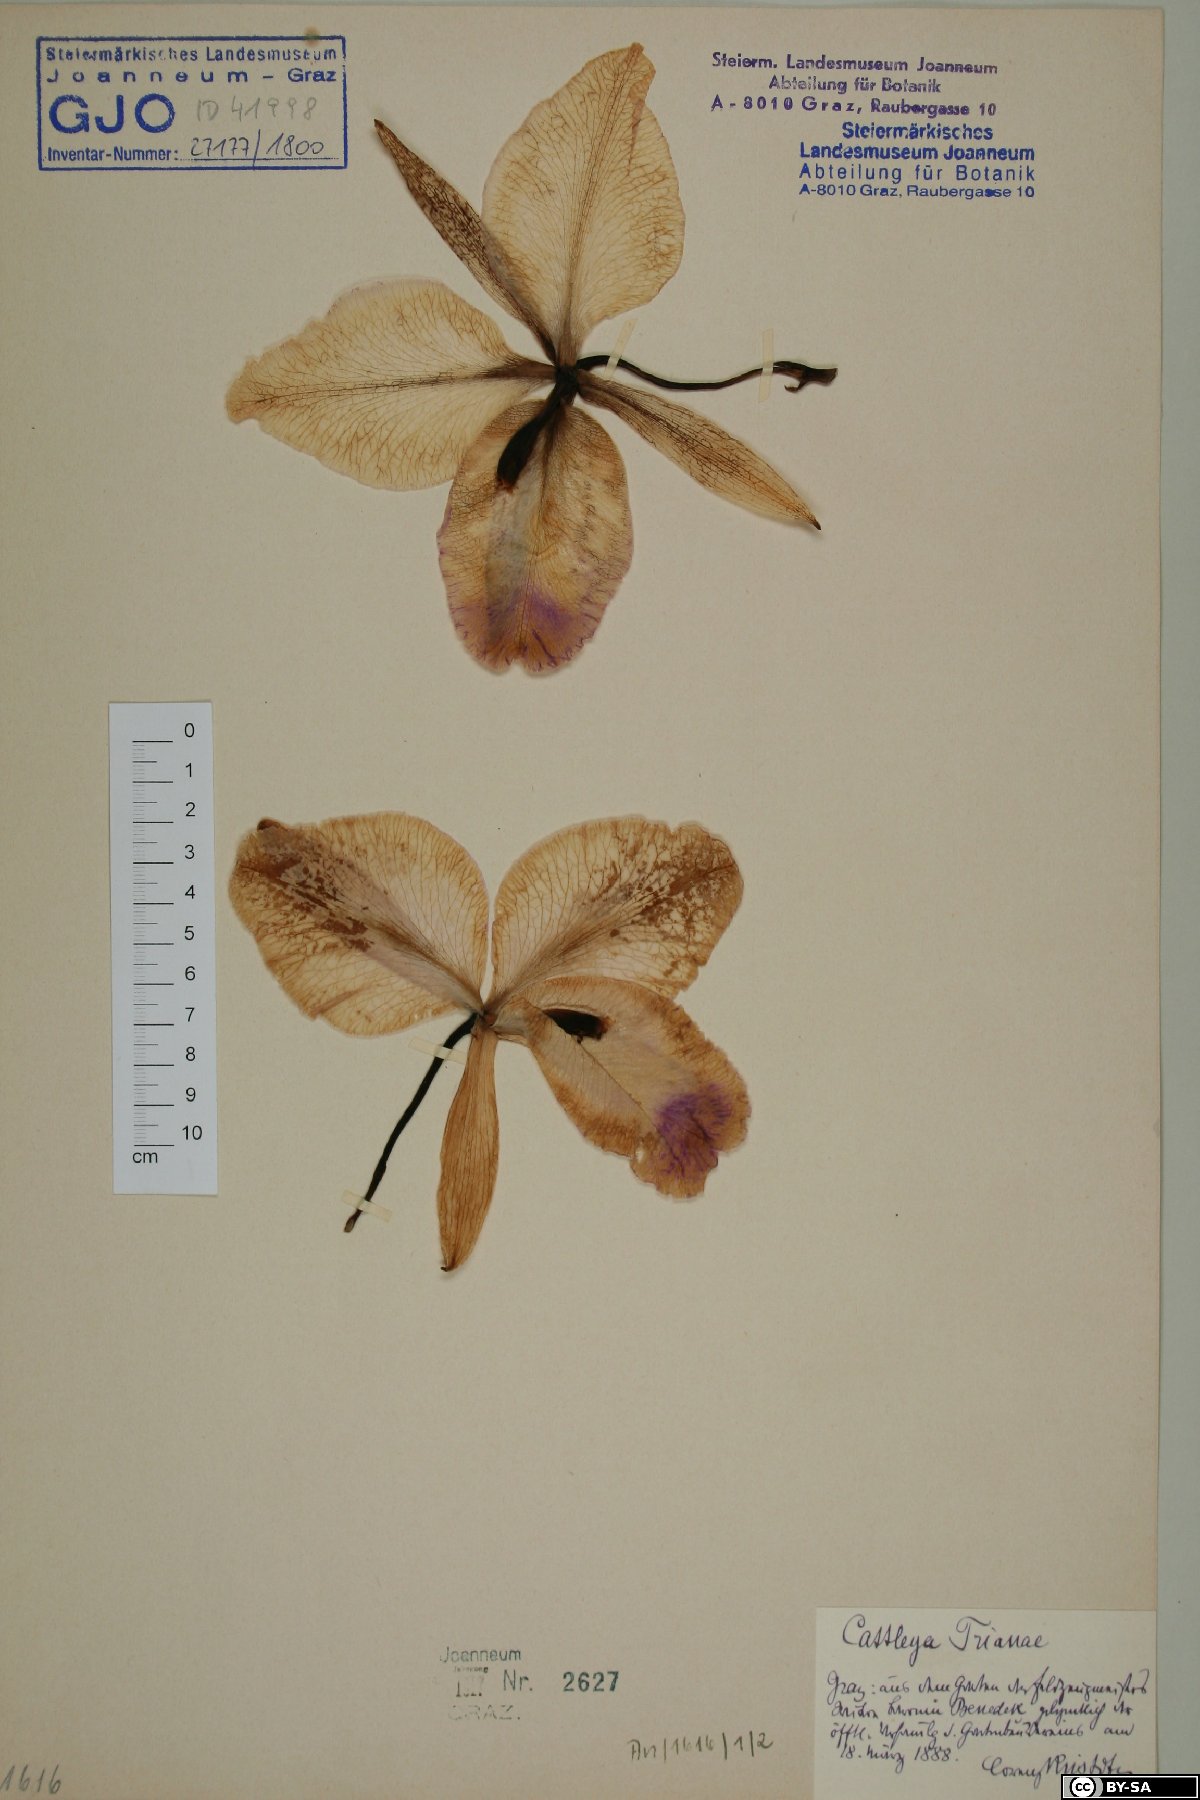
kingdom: Plantae
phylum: Tracheophyta
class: Liliopsida
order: Asparagales
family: Orchidaceae
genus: Cattleya
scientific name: Cattleya trianae
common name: Christmas orchid
